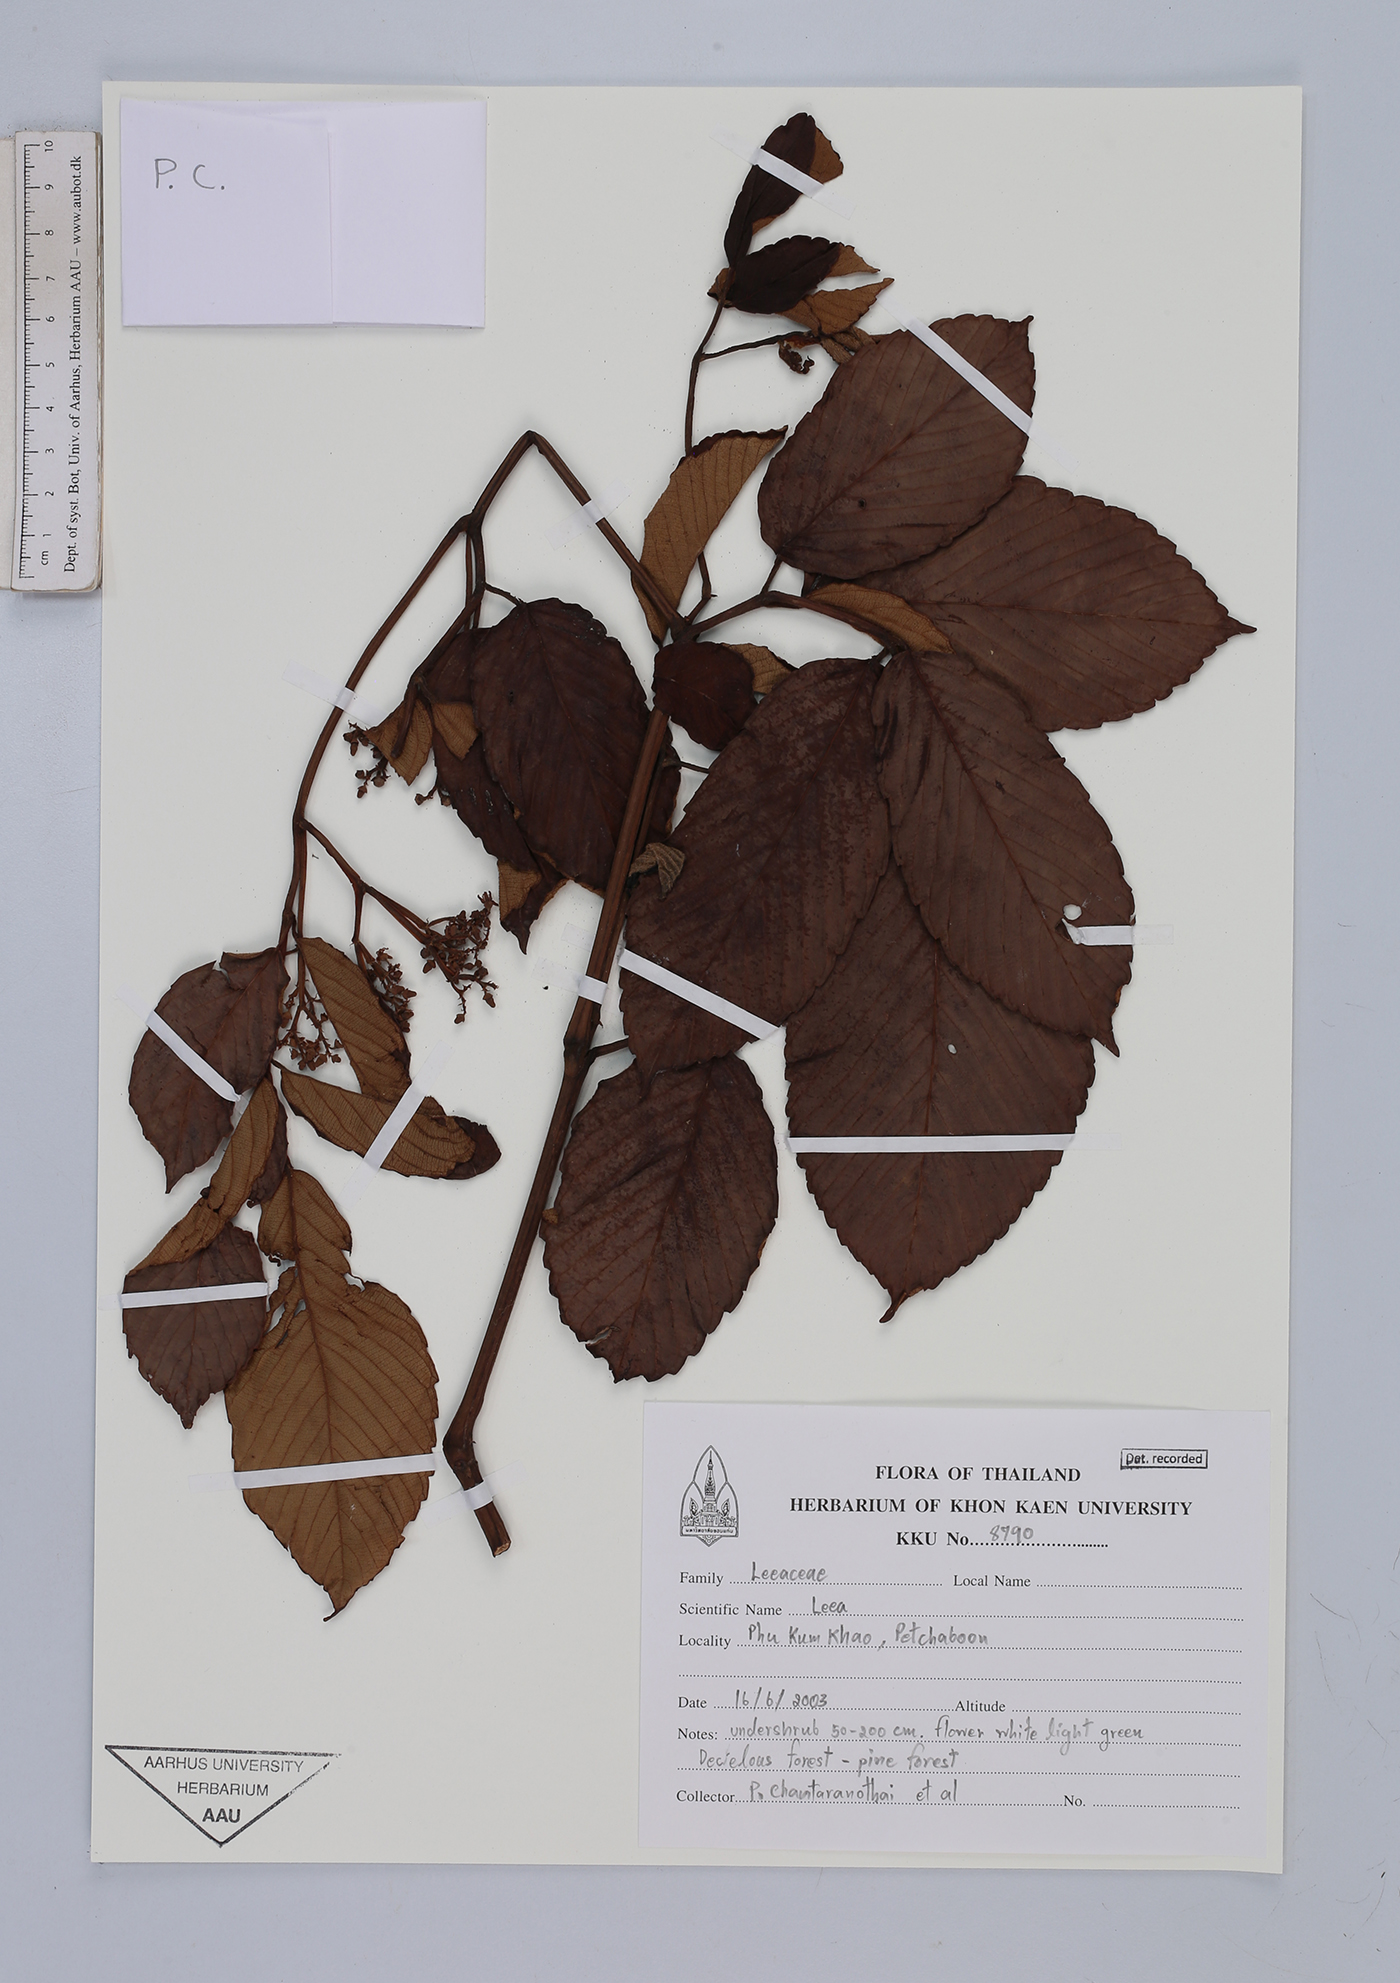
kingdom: Plantae
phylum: Tracheophyta
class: Magnoliopsida
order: Vitales
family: Vitaceae
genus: Leea
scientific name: Leea
